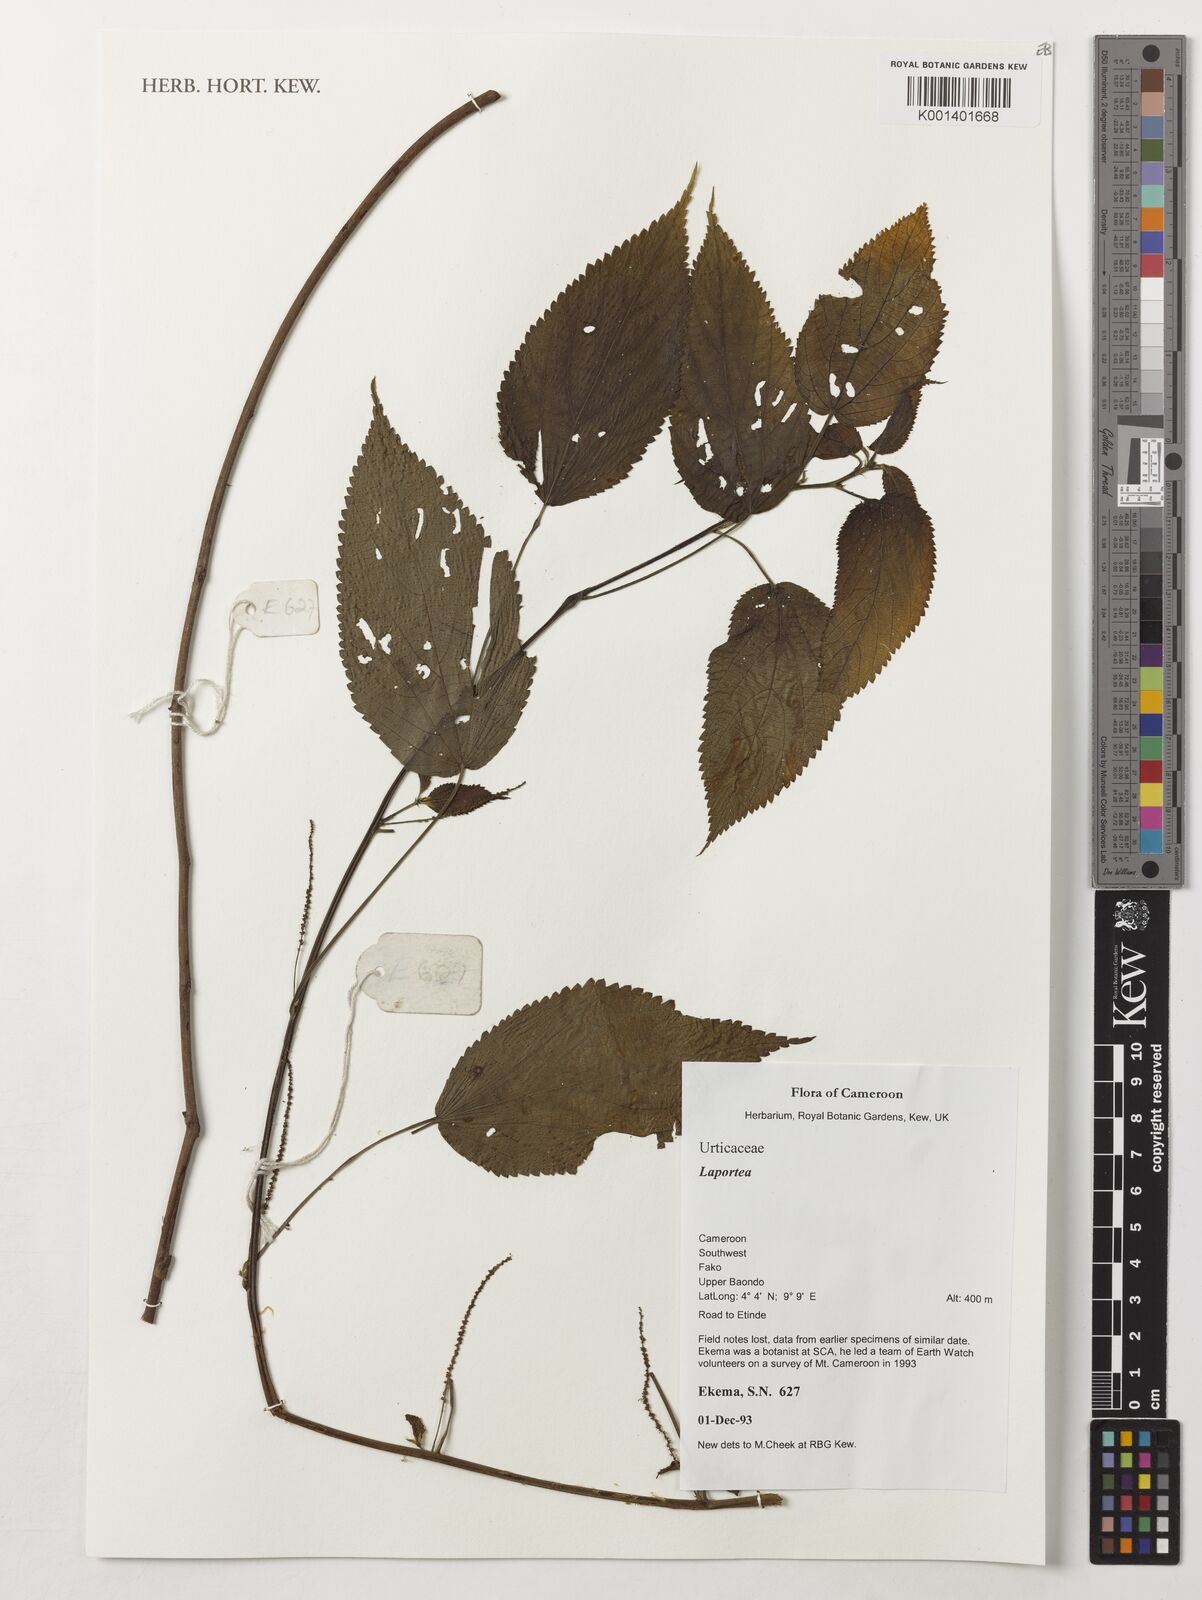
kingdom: Plantae
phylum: Tracheophyta
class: Magnoliopsida
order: Rosales
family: Urticaceae
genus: Laportea
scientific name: Laportea
